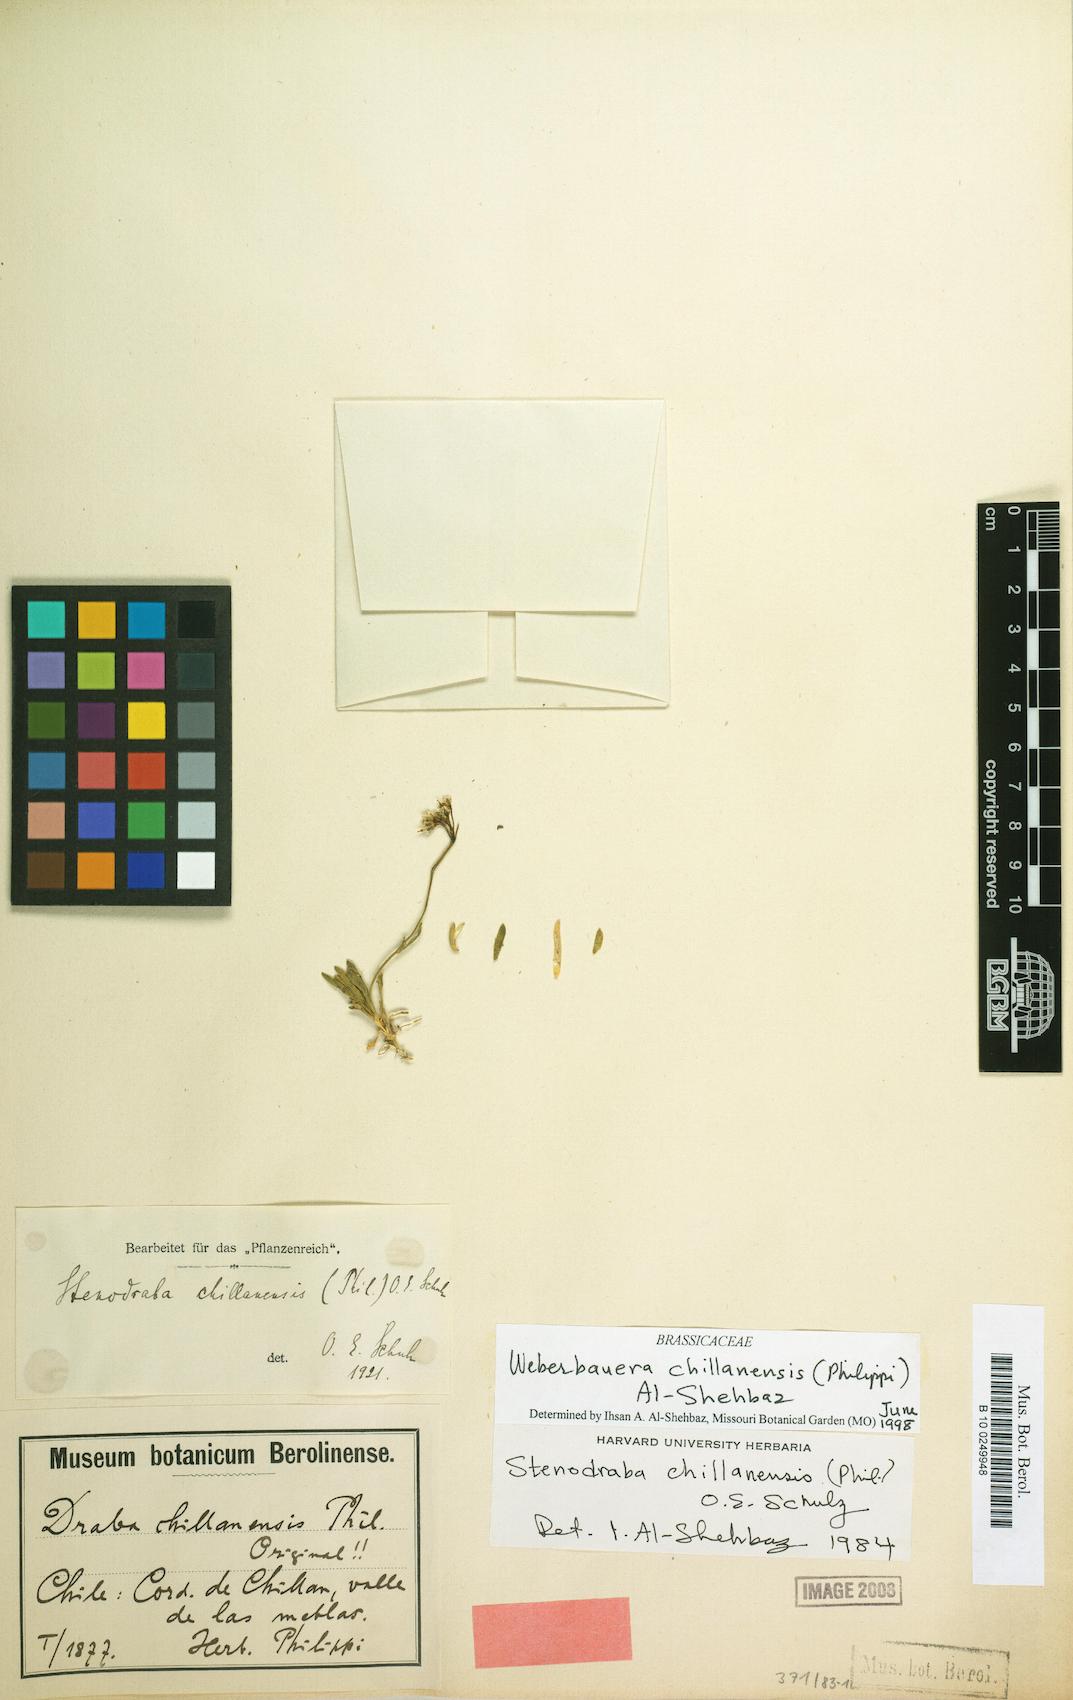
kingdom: Plantae
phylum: Tracheophyta
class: Magnoliopsida
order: Brassicales
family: Brassicaceae
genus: Stenodraba
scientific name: Stenodraba chillanensis
